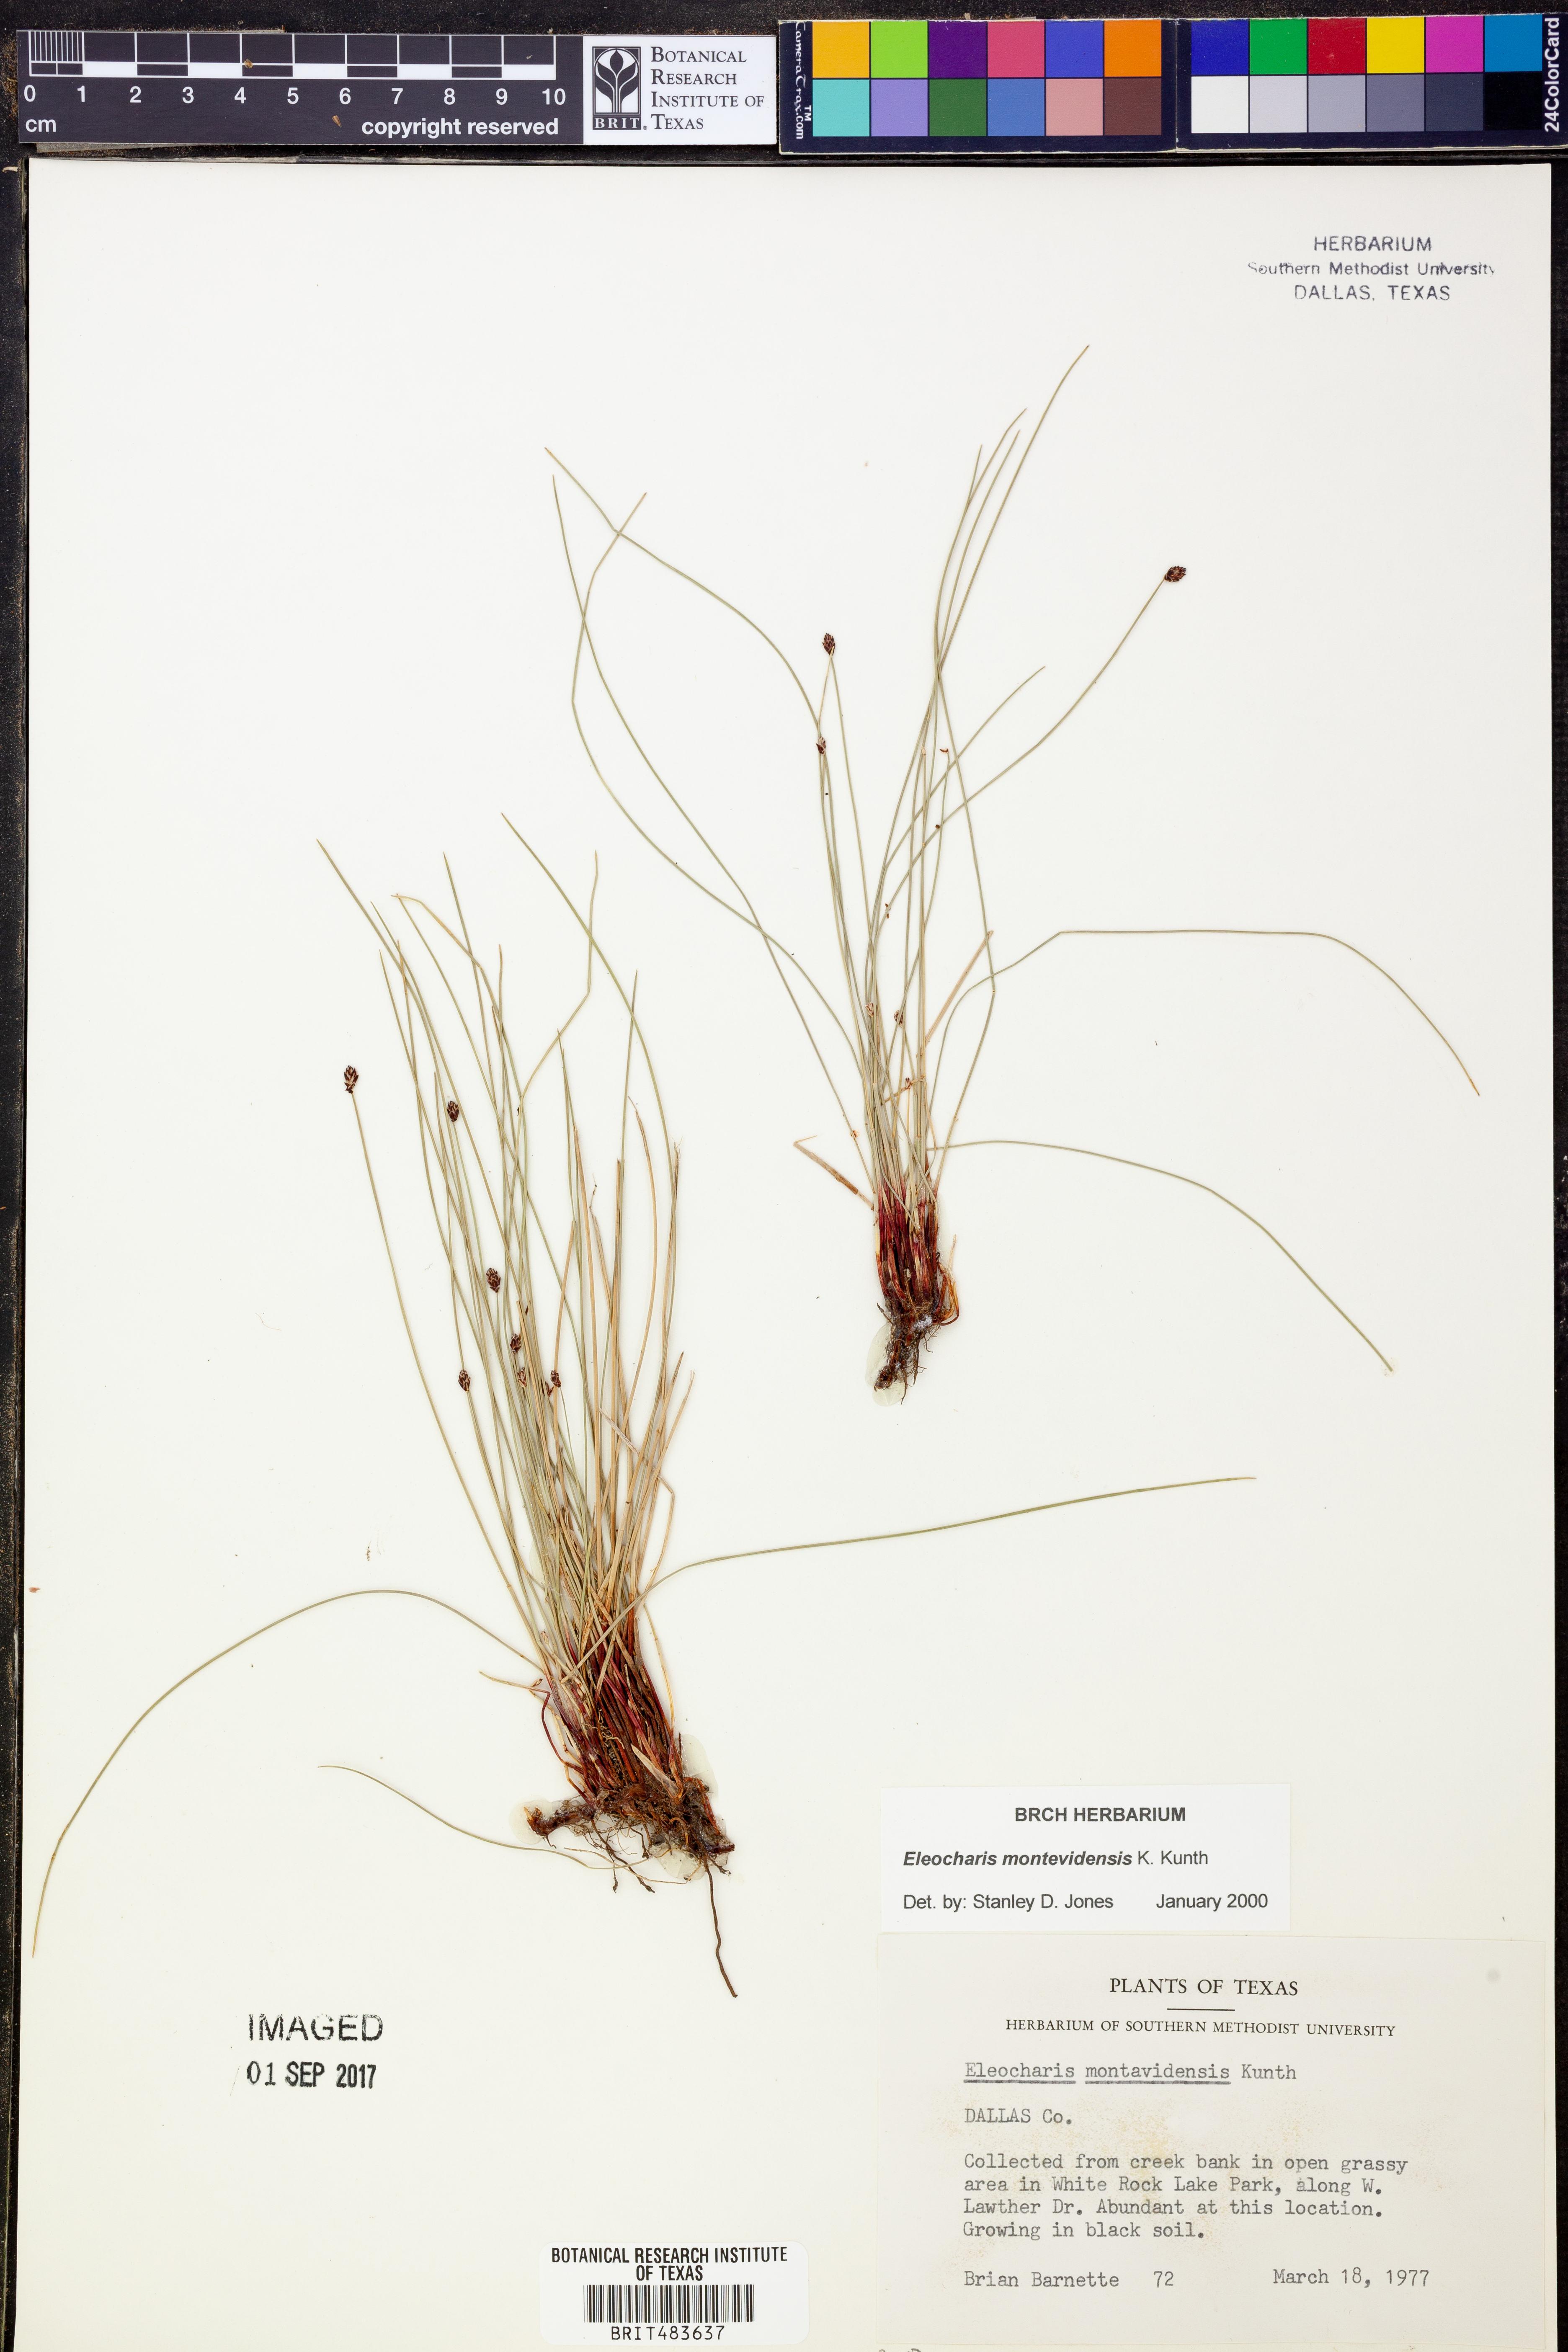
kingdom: Plantae
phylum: Tracheophyta
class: Liliopsida
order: Poales
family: Cyperaceae
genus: Eleocharis
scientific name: Eleocharis montevidensis
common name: Sand spike-rush
